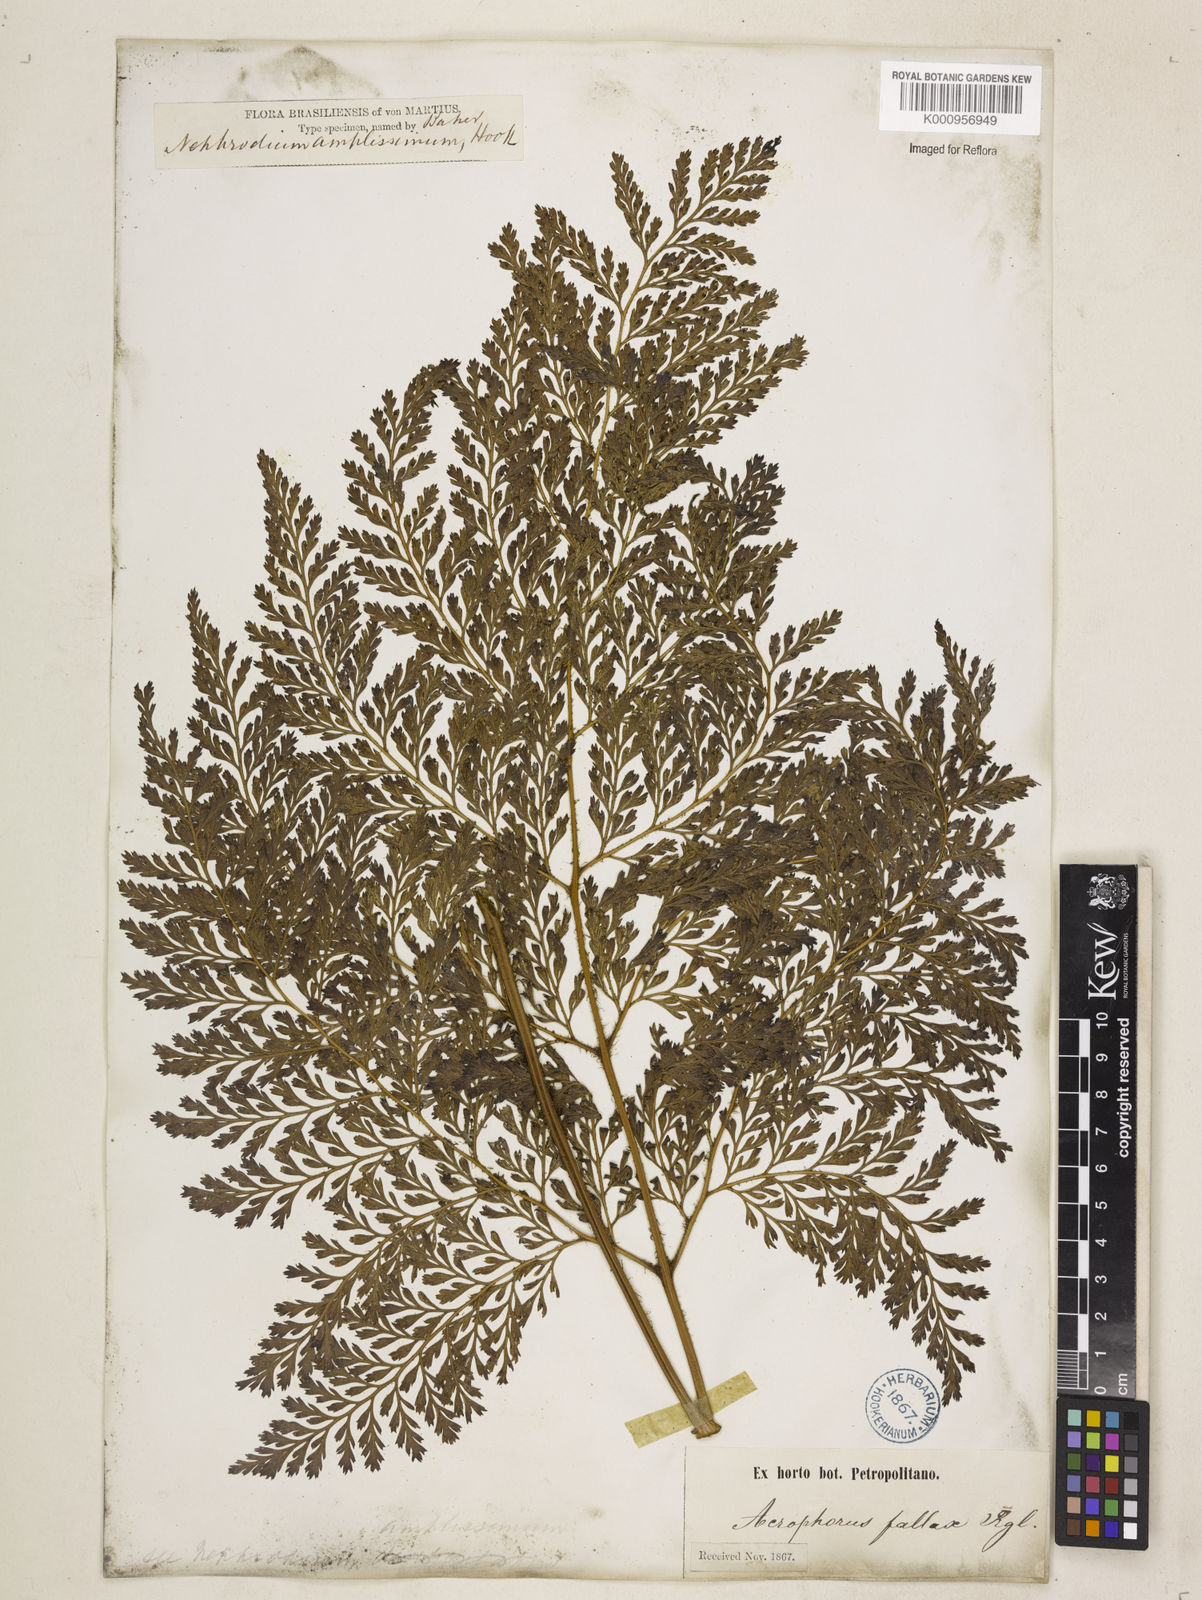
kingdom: Plantae
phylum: Tracheophyta
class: Polypodiopsida
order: Polypodiales
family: Dryopteridaceae
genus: Lastreopsis
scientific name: Lastreopsis amplissima
